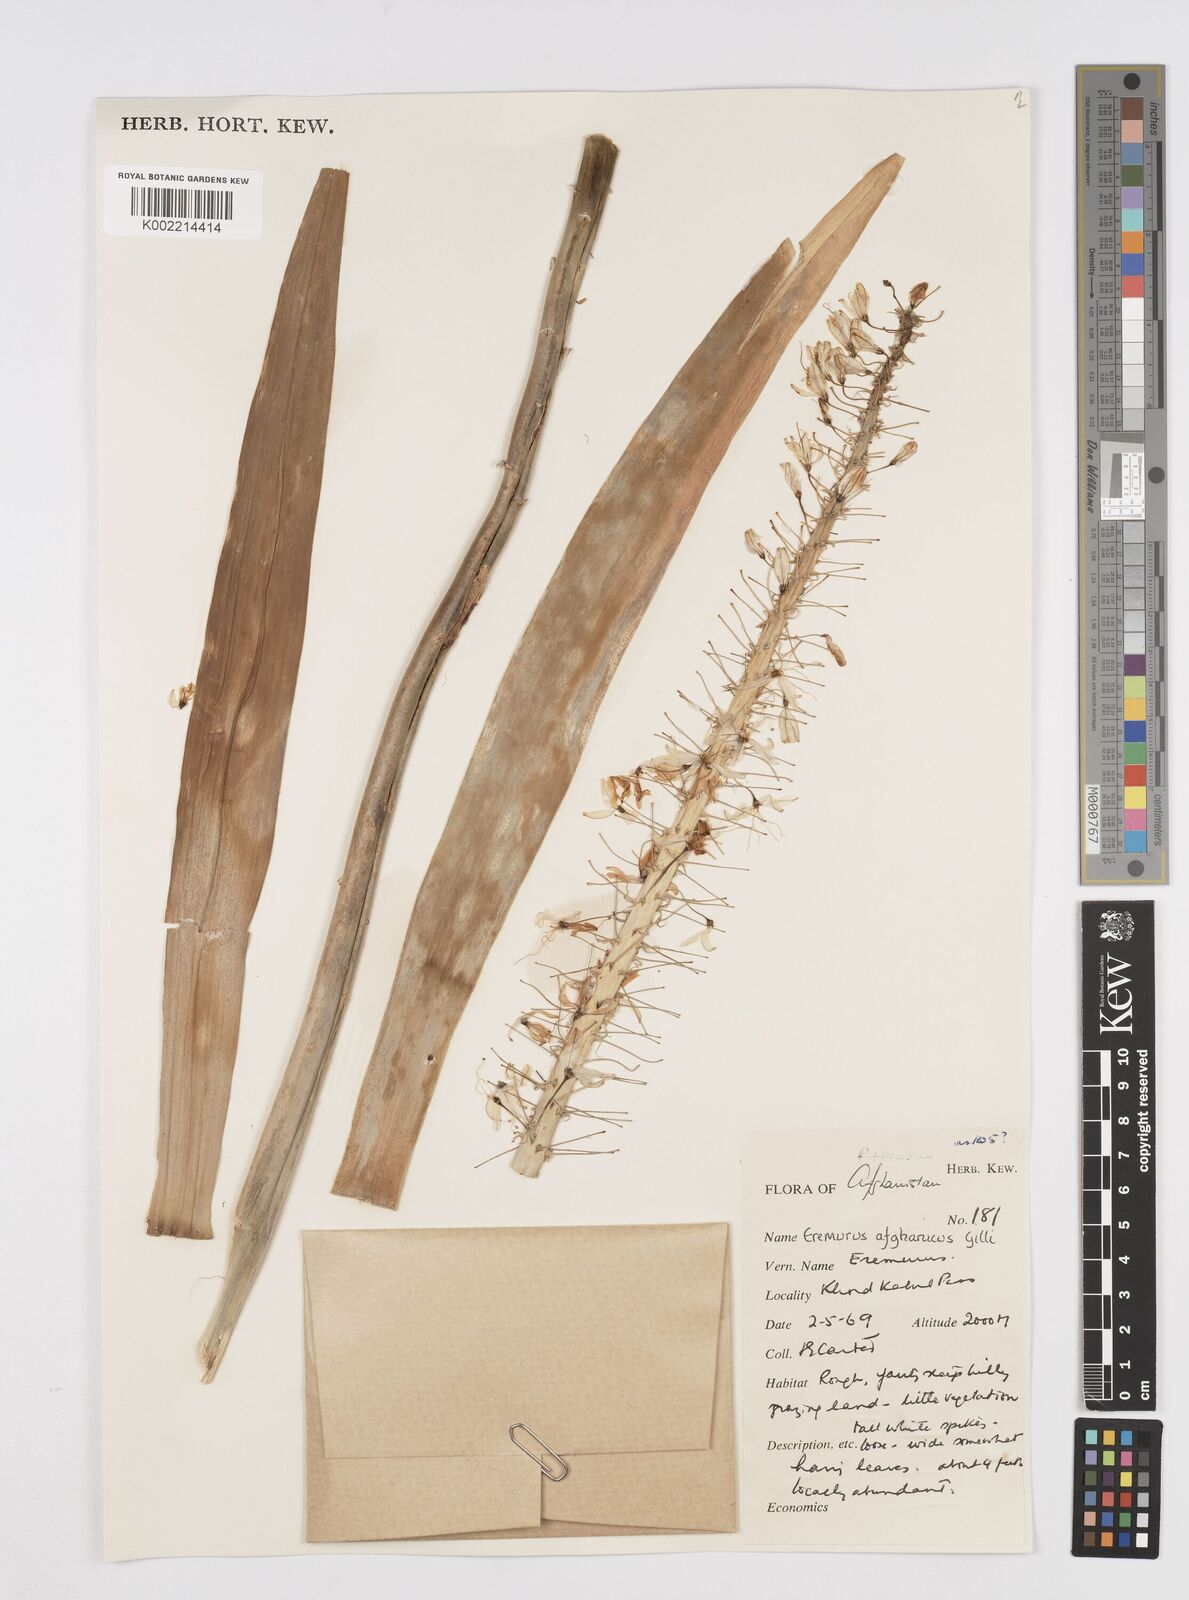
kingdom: Plantae
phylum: Tracheophyta
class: Liliopsida
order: Asparagales
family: Asphodelaceae
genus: Eremurus
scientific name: Eremurus afghanicus
